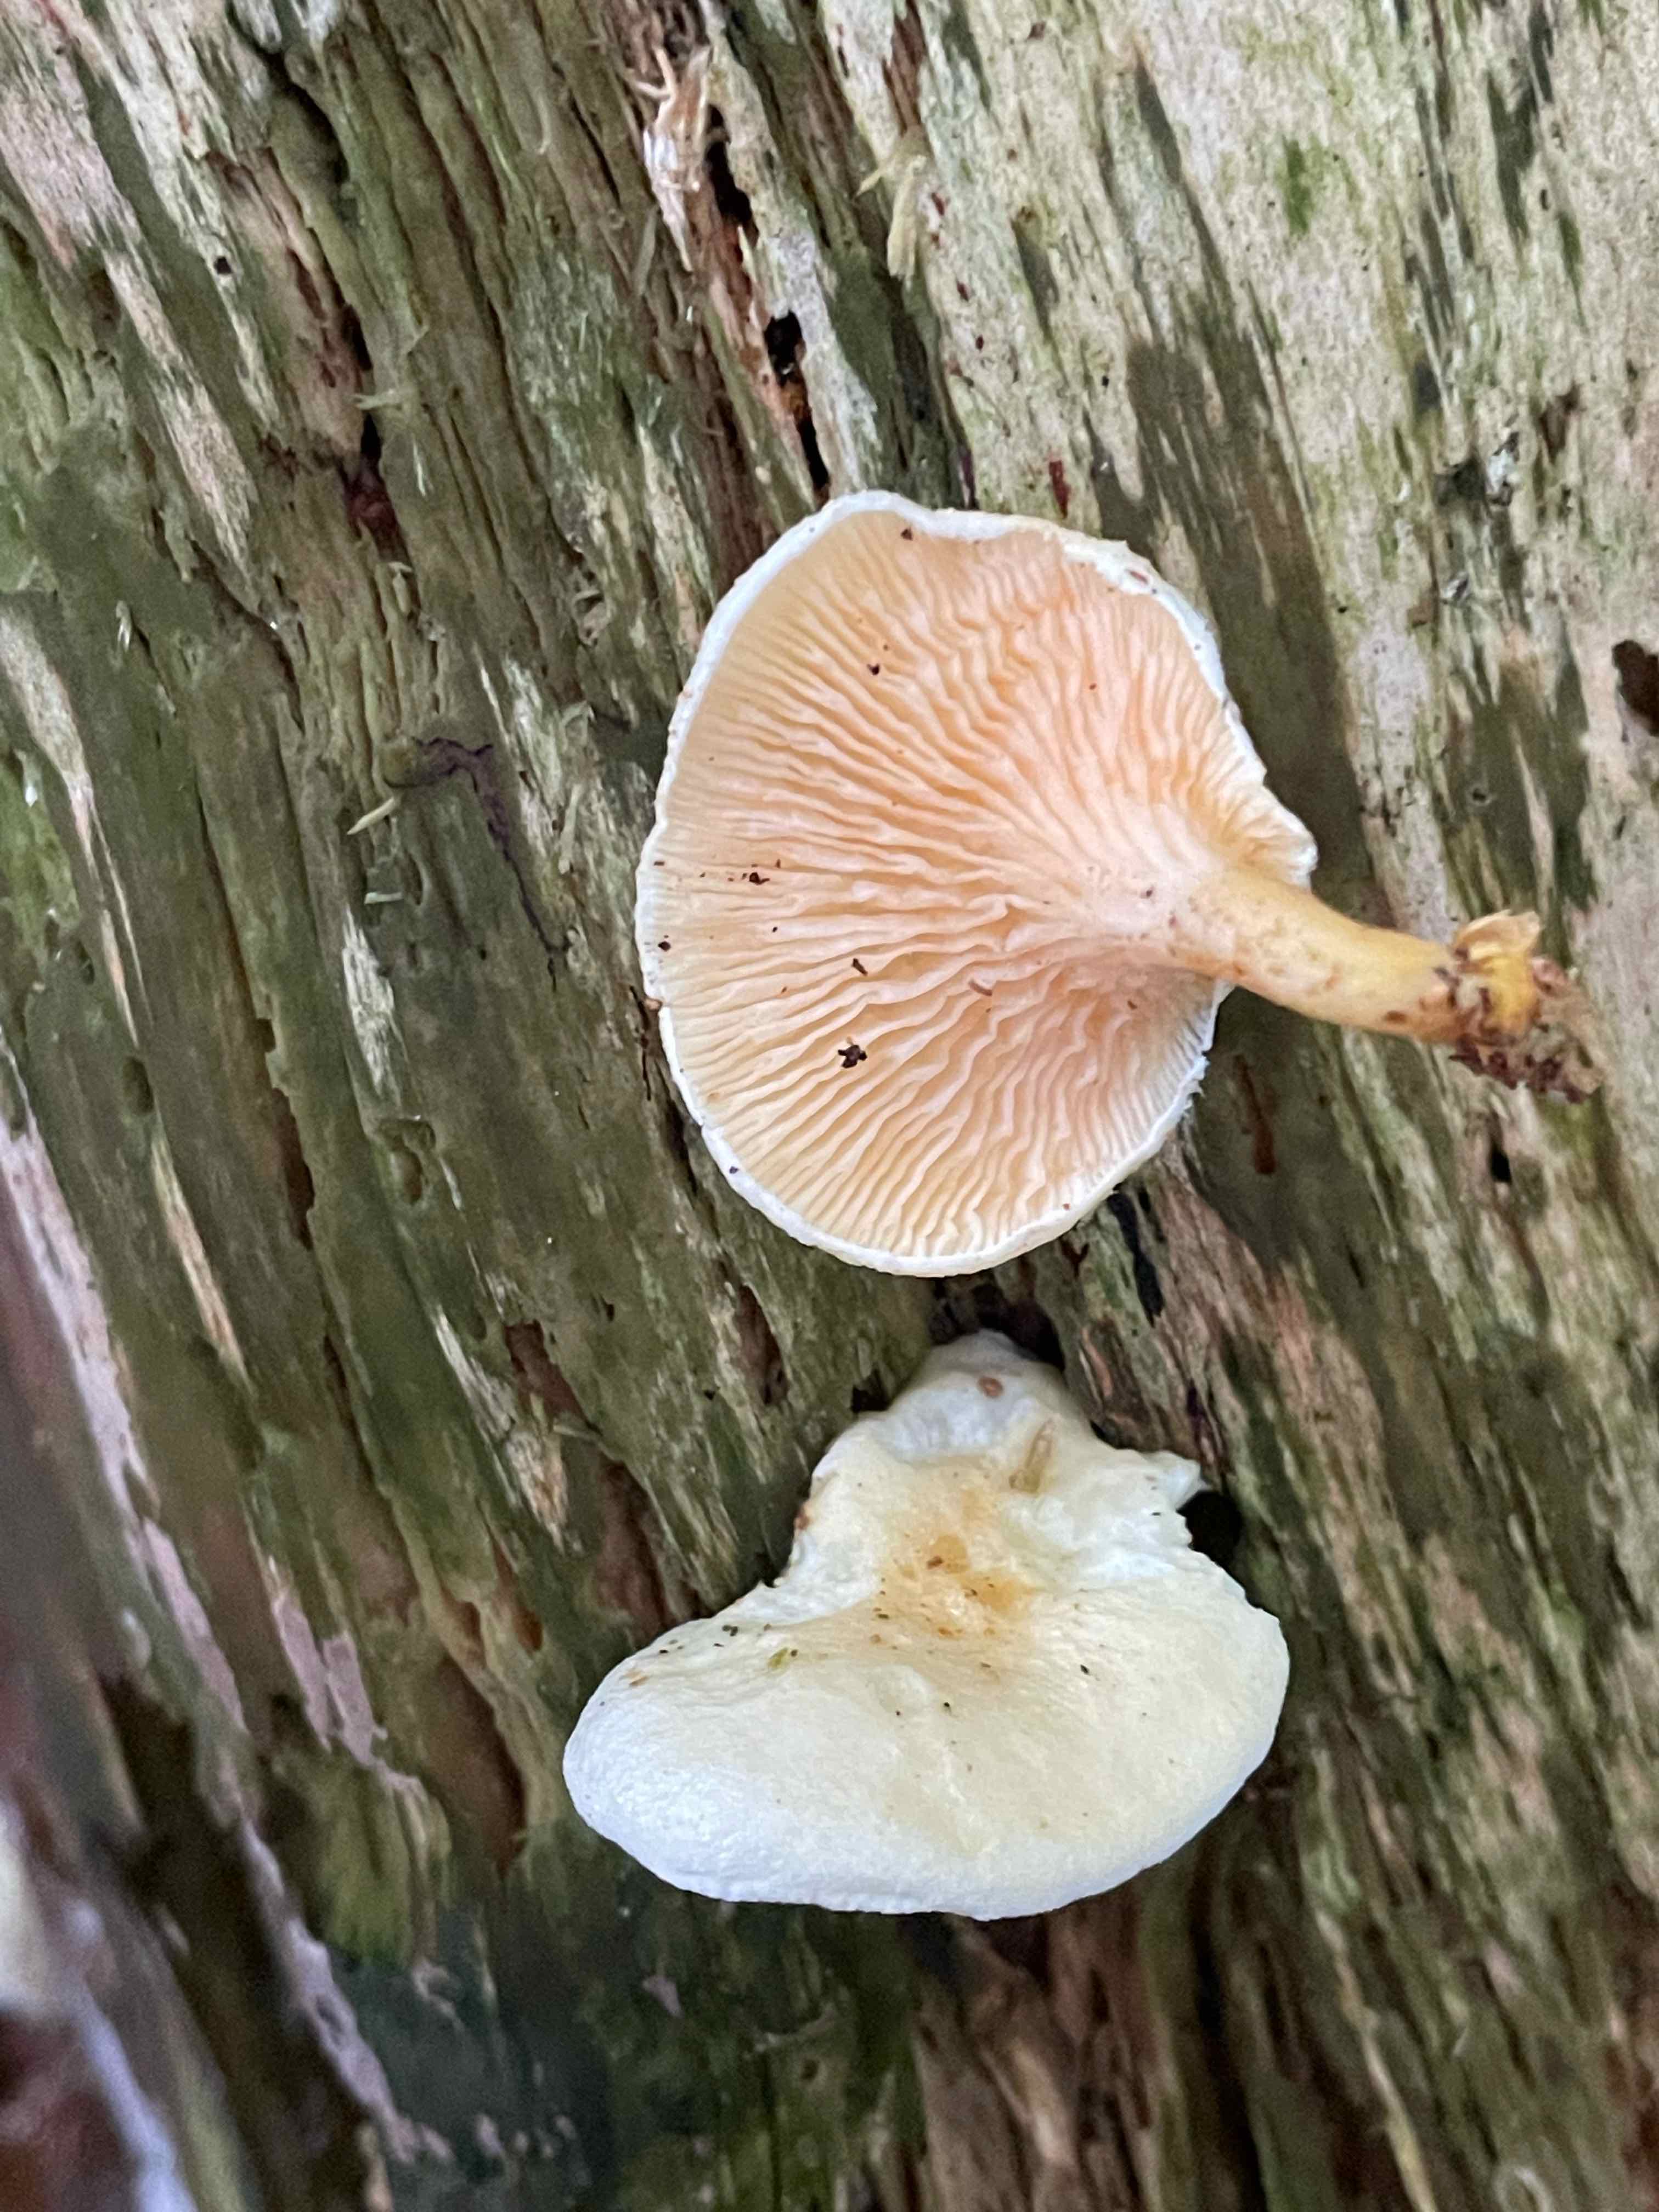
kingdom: Fungi
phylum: Basidiomycota
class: Agaricomycetes
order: Boletales
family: Hygrophoropsidaceae
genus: Hygrophoropsis
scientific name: Hygrophoropsis aurantiaca
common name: almindelig orangekantarel
